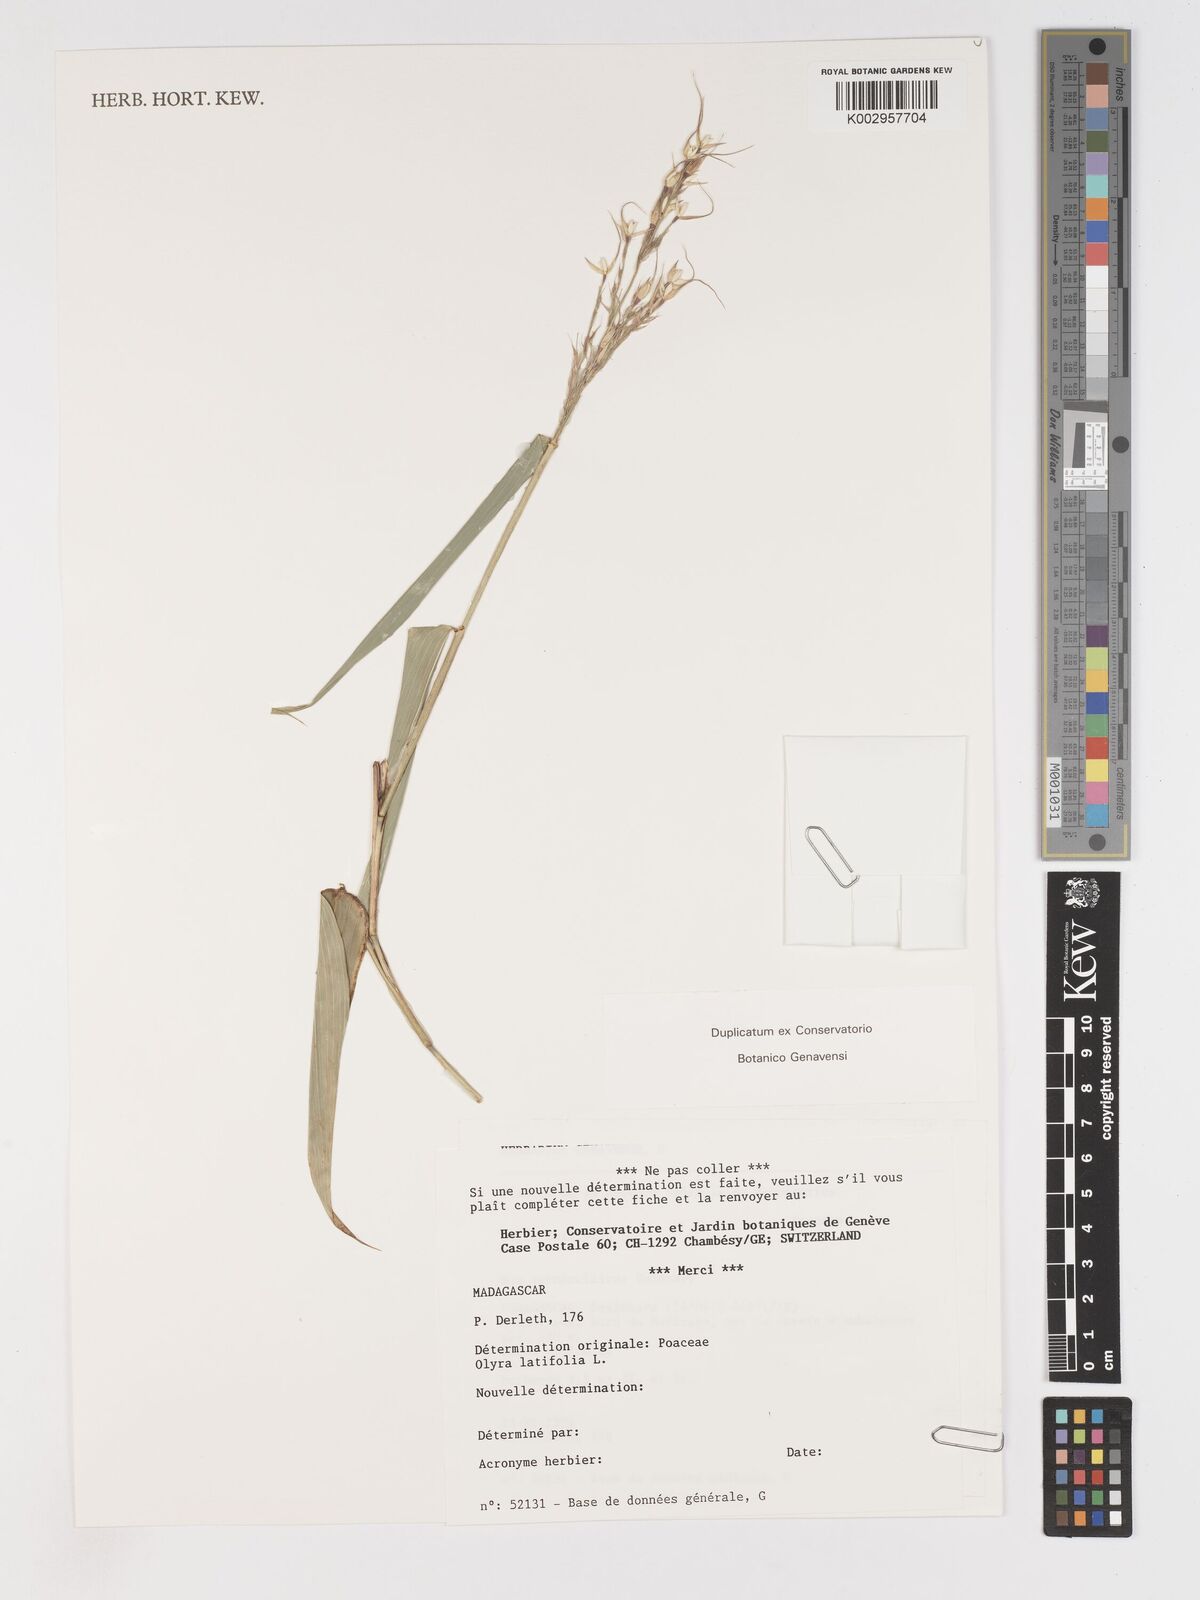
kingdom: Plantae
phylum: Tracheophyta
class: Liliopsida
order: Poales
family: Poaceae
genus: Olyra
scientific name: Olyra latifolia
